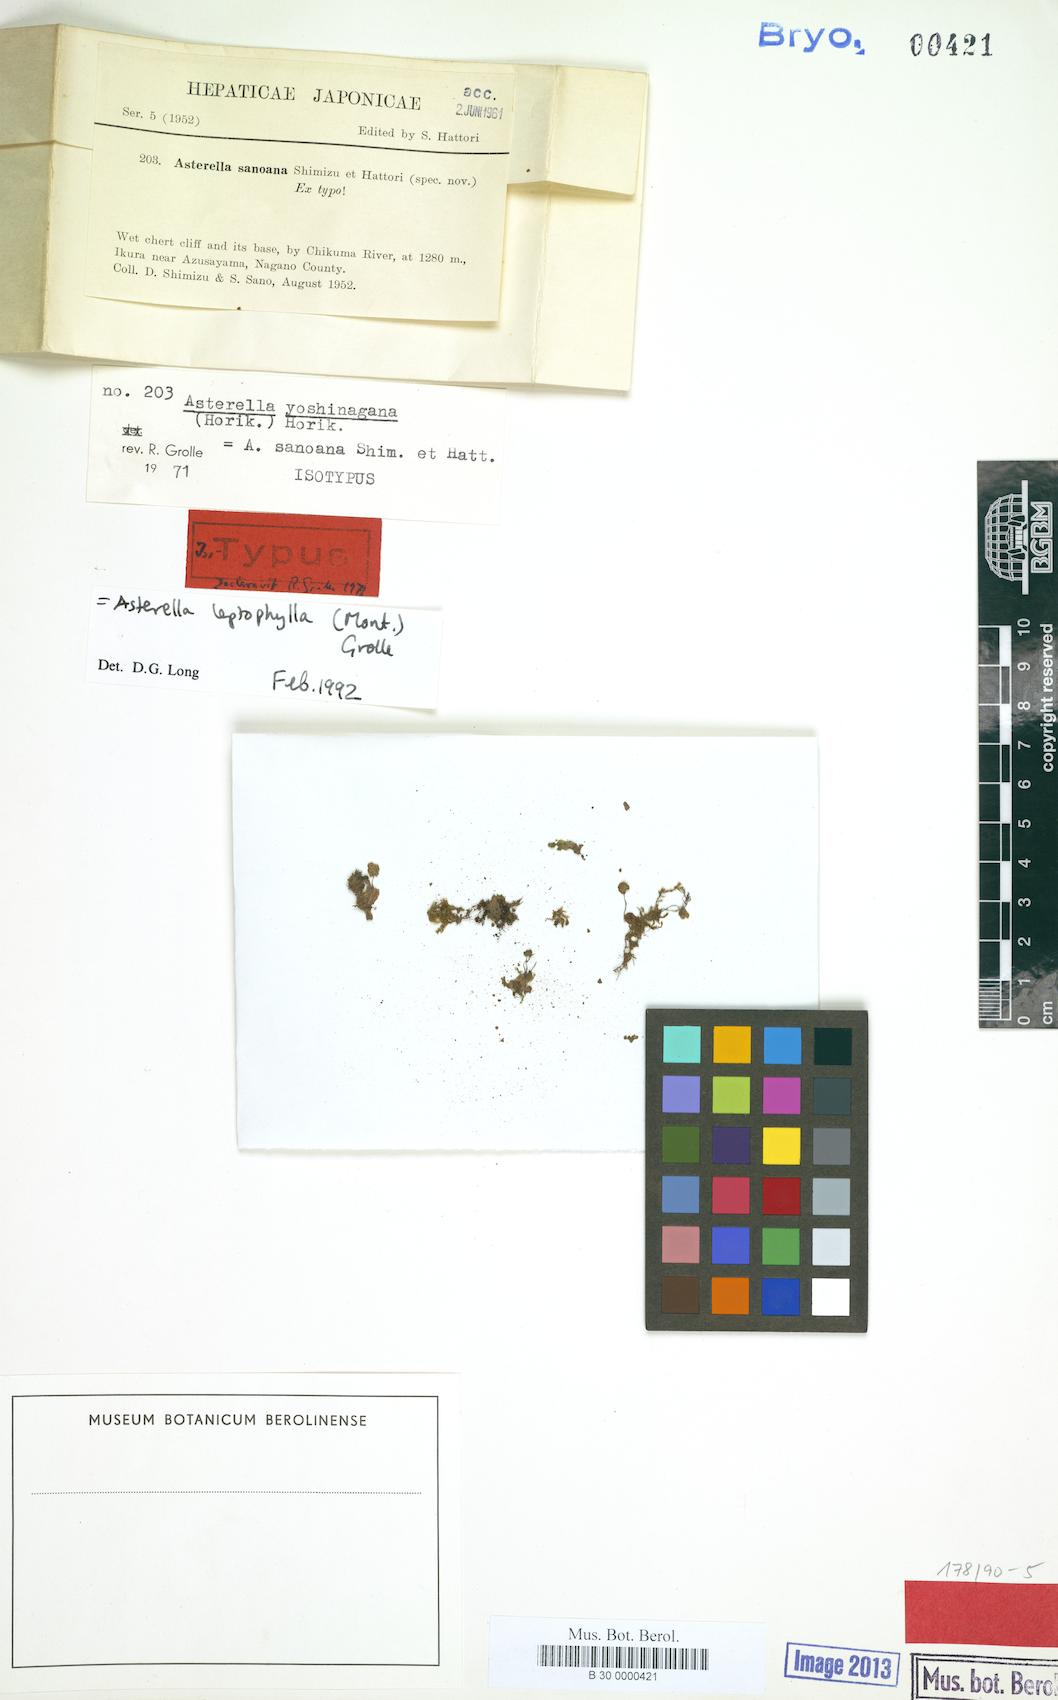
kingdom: Plantae
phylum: Marchantiophyta
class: Marchantiopsida
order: Marchantiales
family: Aytoniaceae
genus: Asterella
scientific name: Asterella leptophylla
